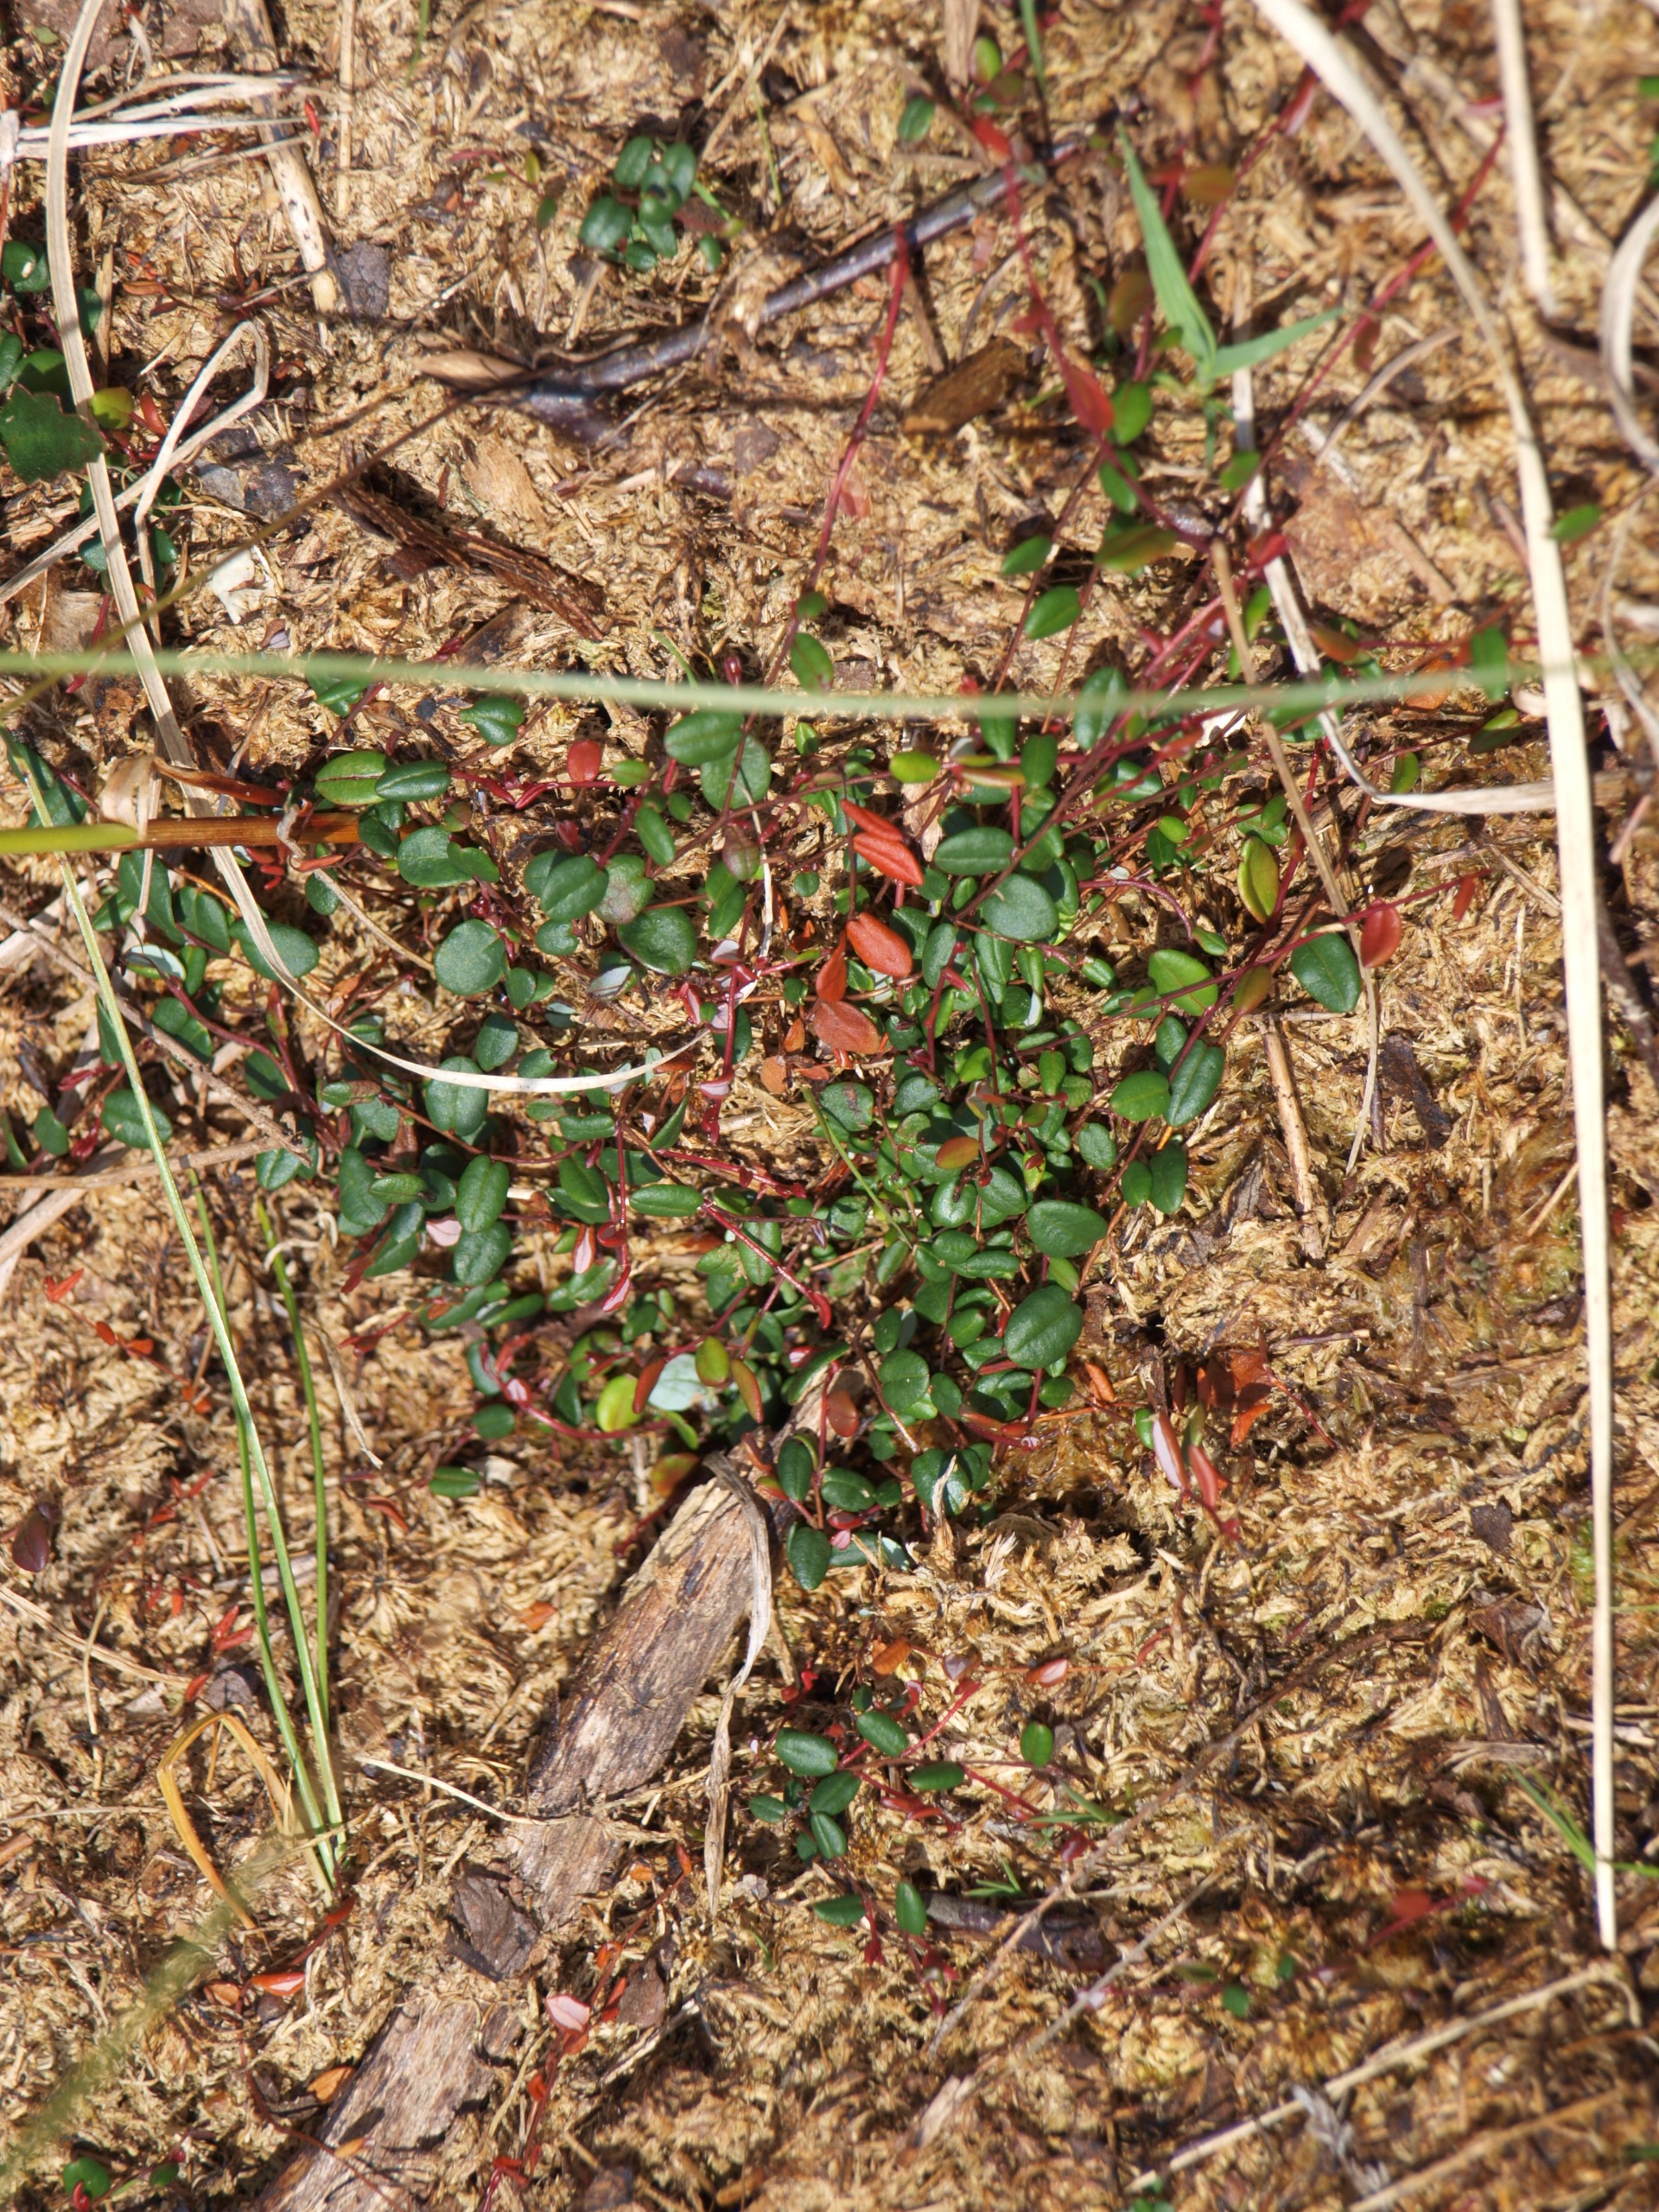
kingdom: Plantae
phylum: Tracheophyta
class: Magnoliopsida
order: Ericales
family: Ericaceae
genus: Vaccinium
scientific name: Vaccinium oxycoccos
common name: Tranebær
